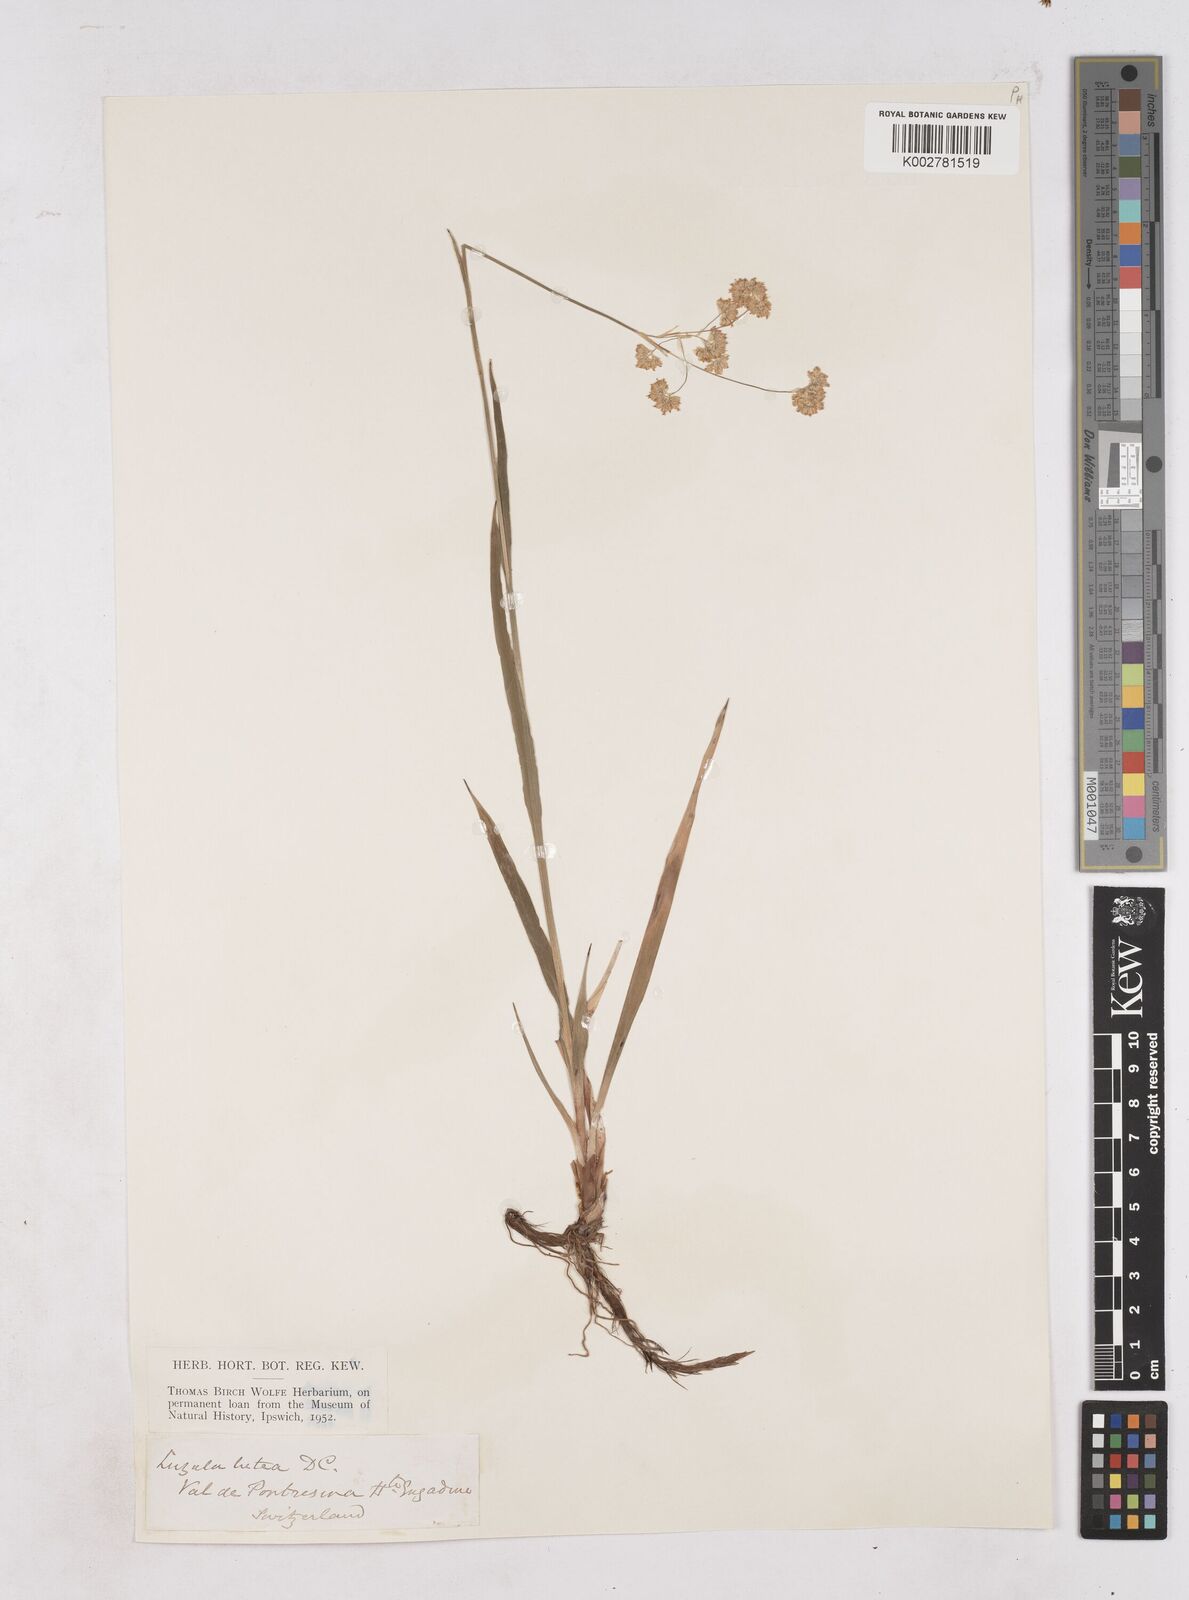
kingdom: Plantae
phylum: Tracheophyta
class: Liliopsida
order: Poales
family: Juncaceae
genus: Luzula
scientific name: Luzula lutea
